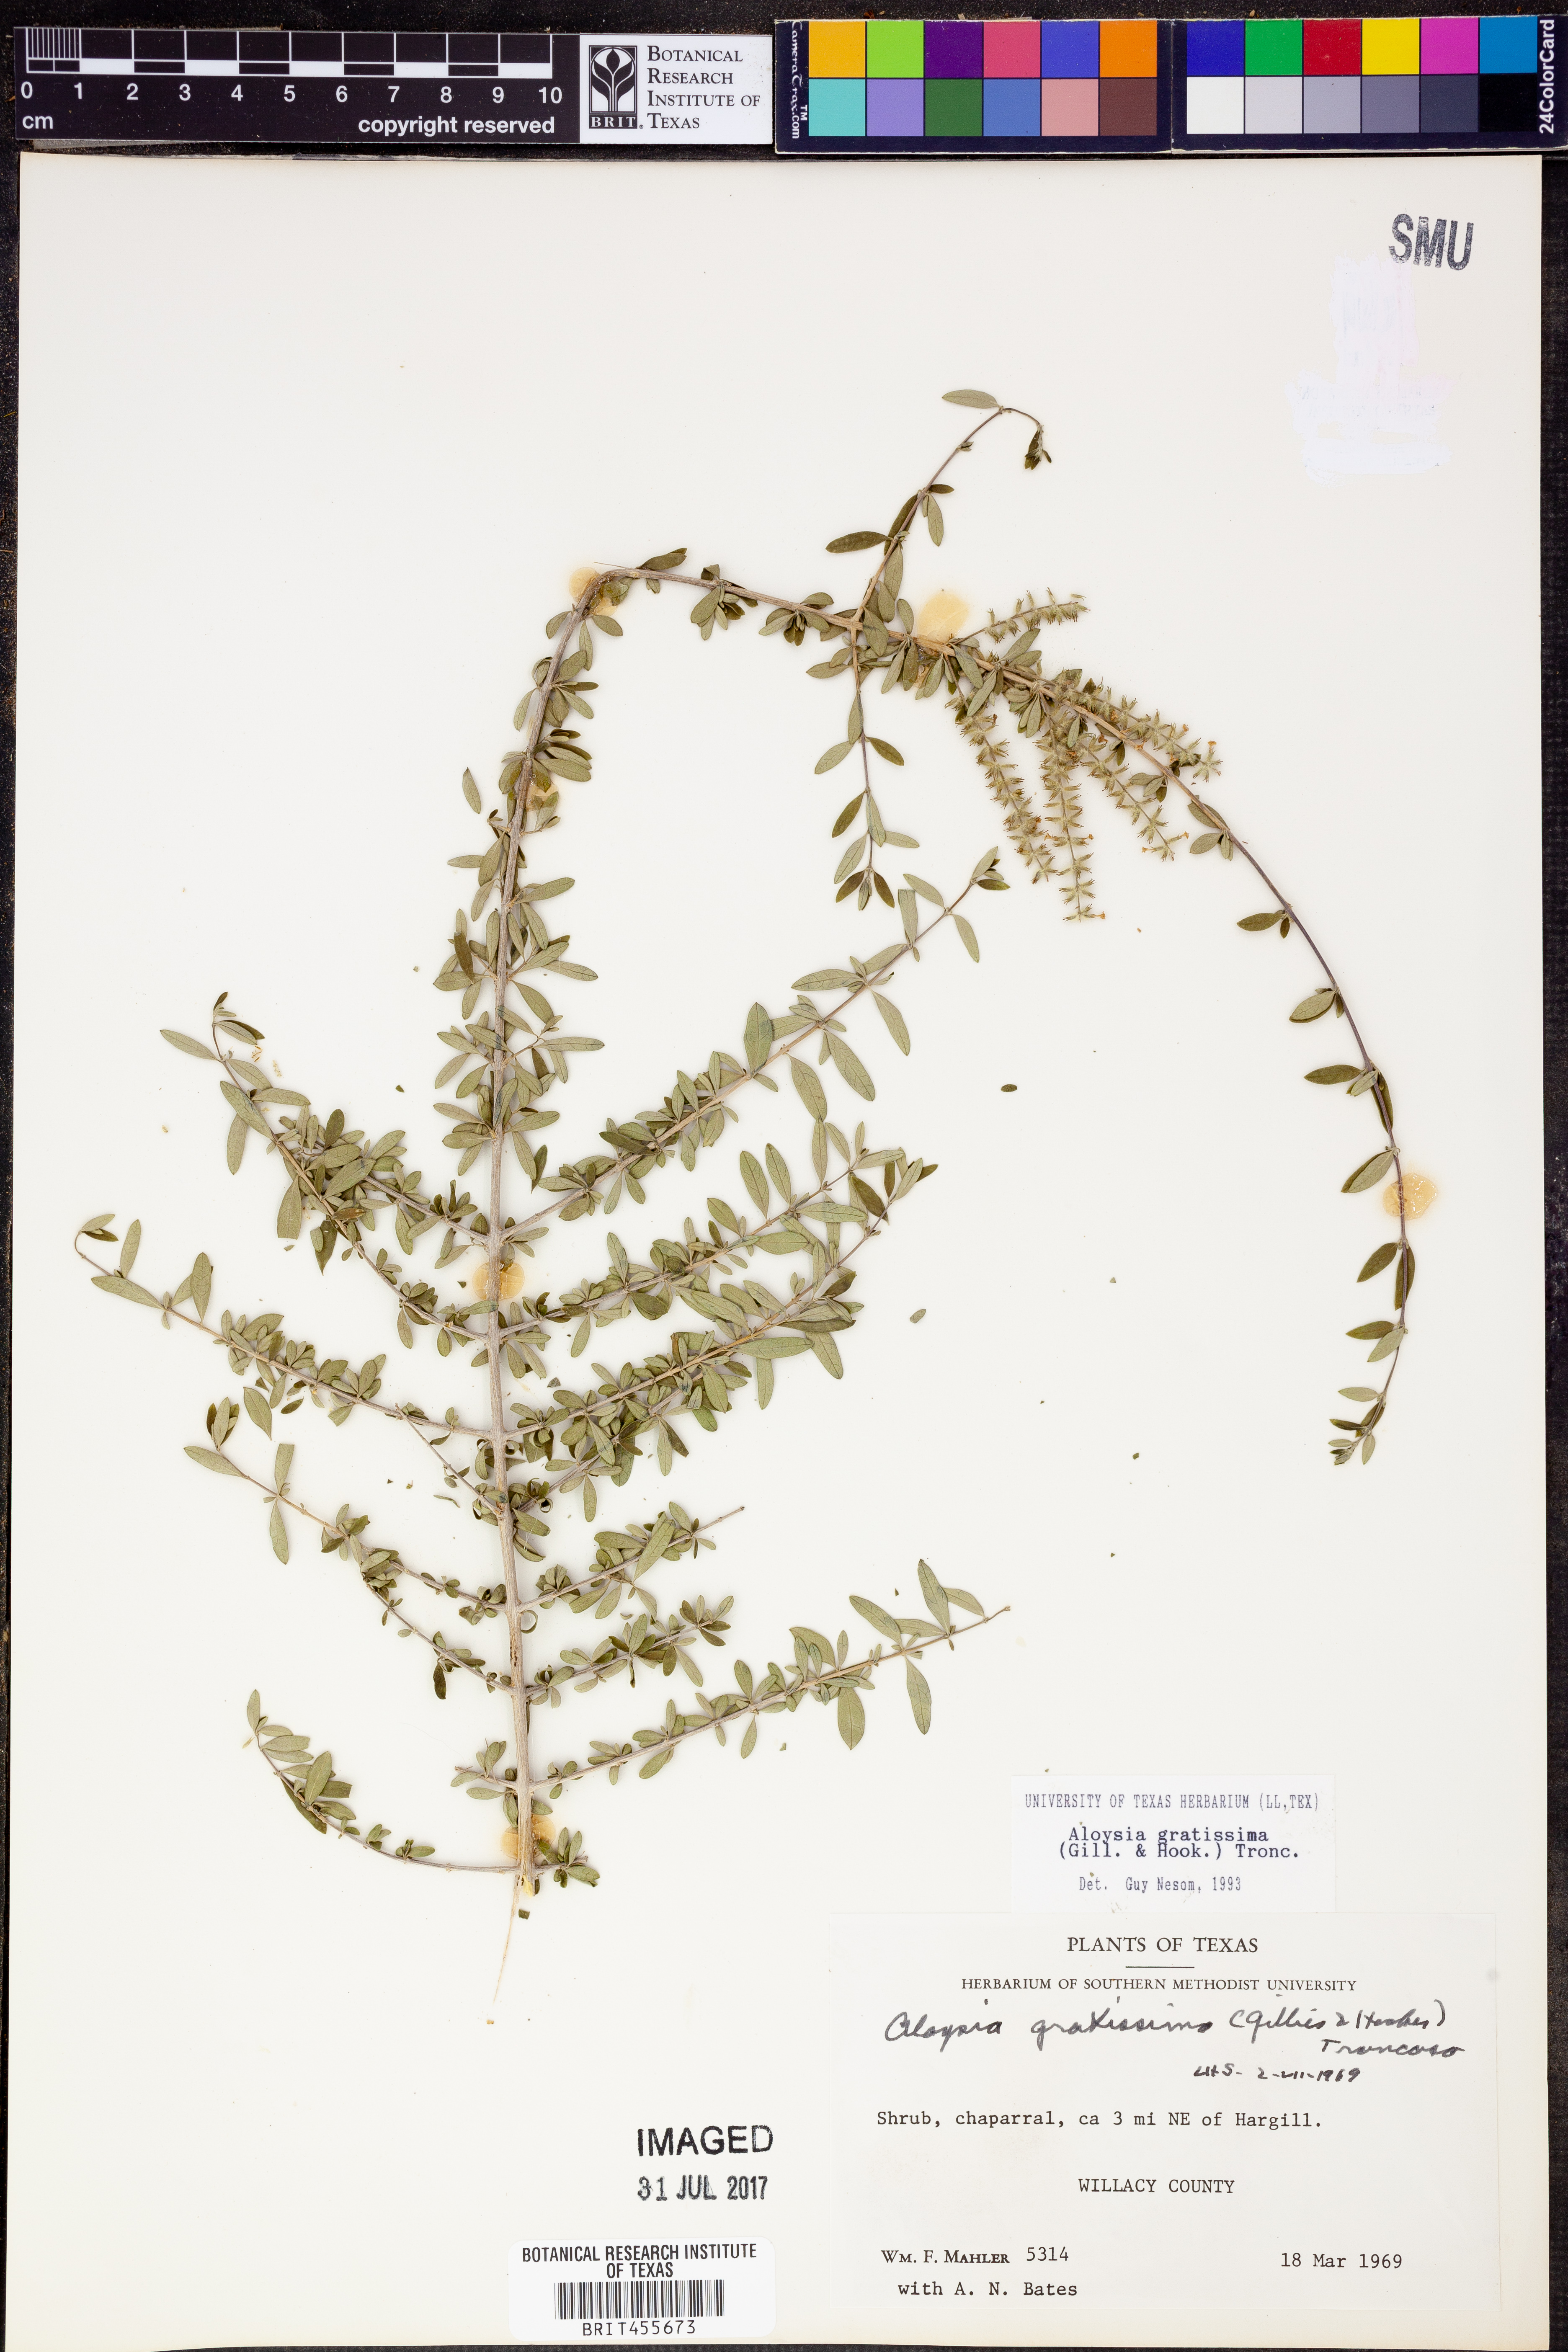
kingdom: Plantae
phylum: Tracheophyta
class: Magnoliopsida
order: Lamiales
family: Verbenaceae
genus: Aloysia
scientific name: Aloysia gratissima
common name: Common bee-brush
